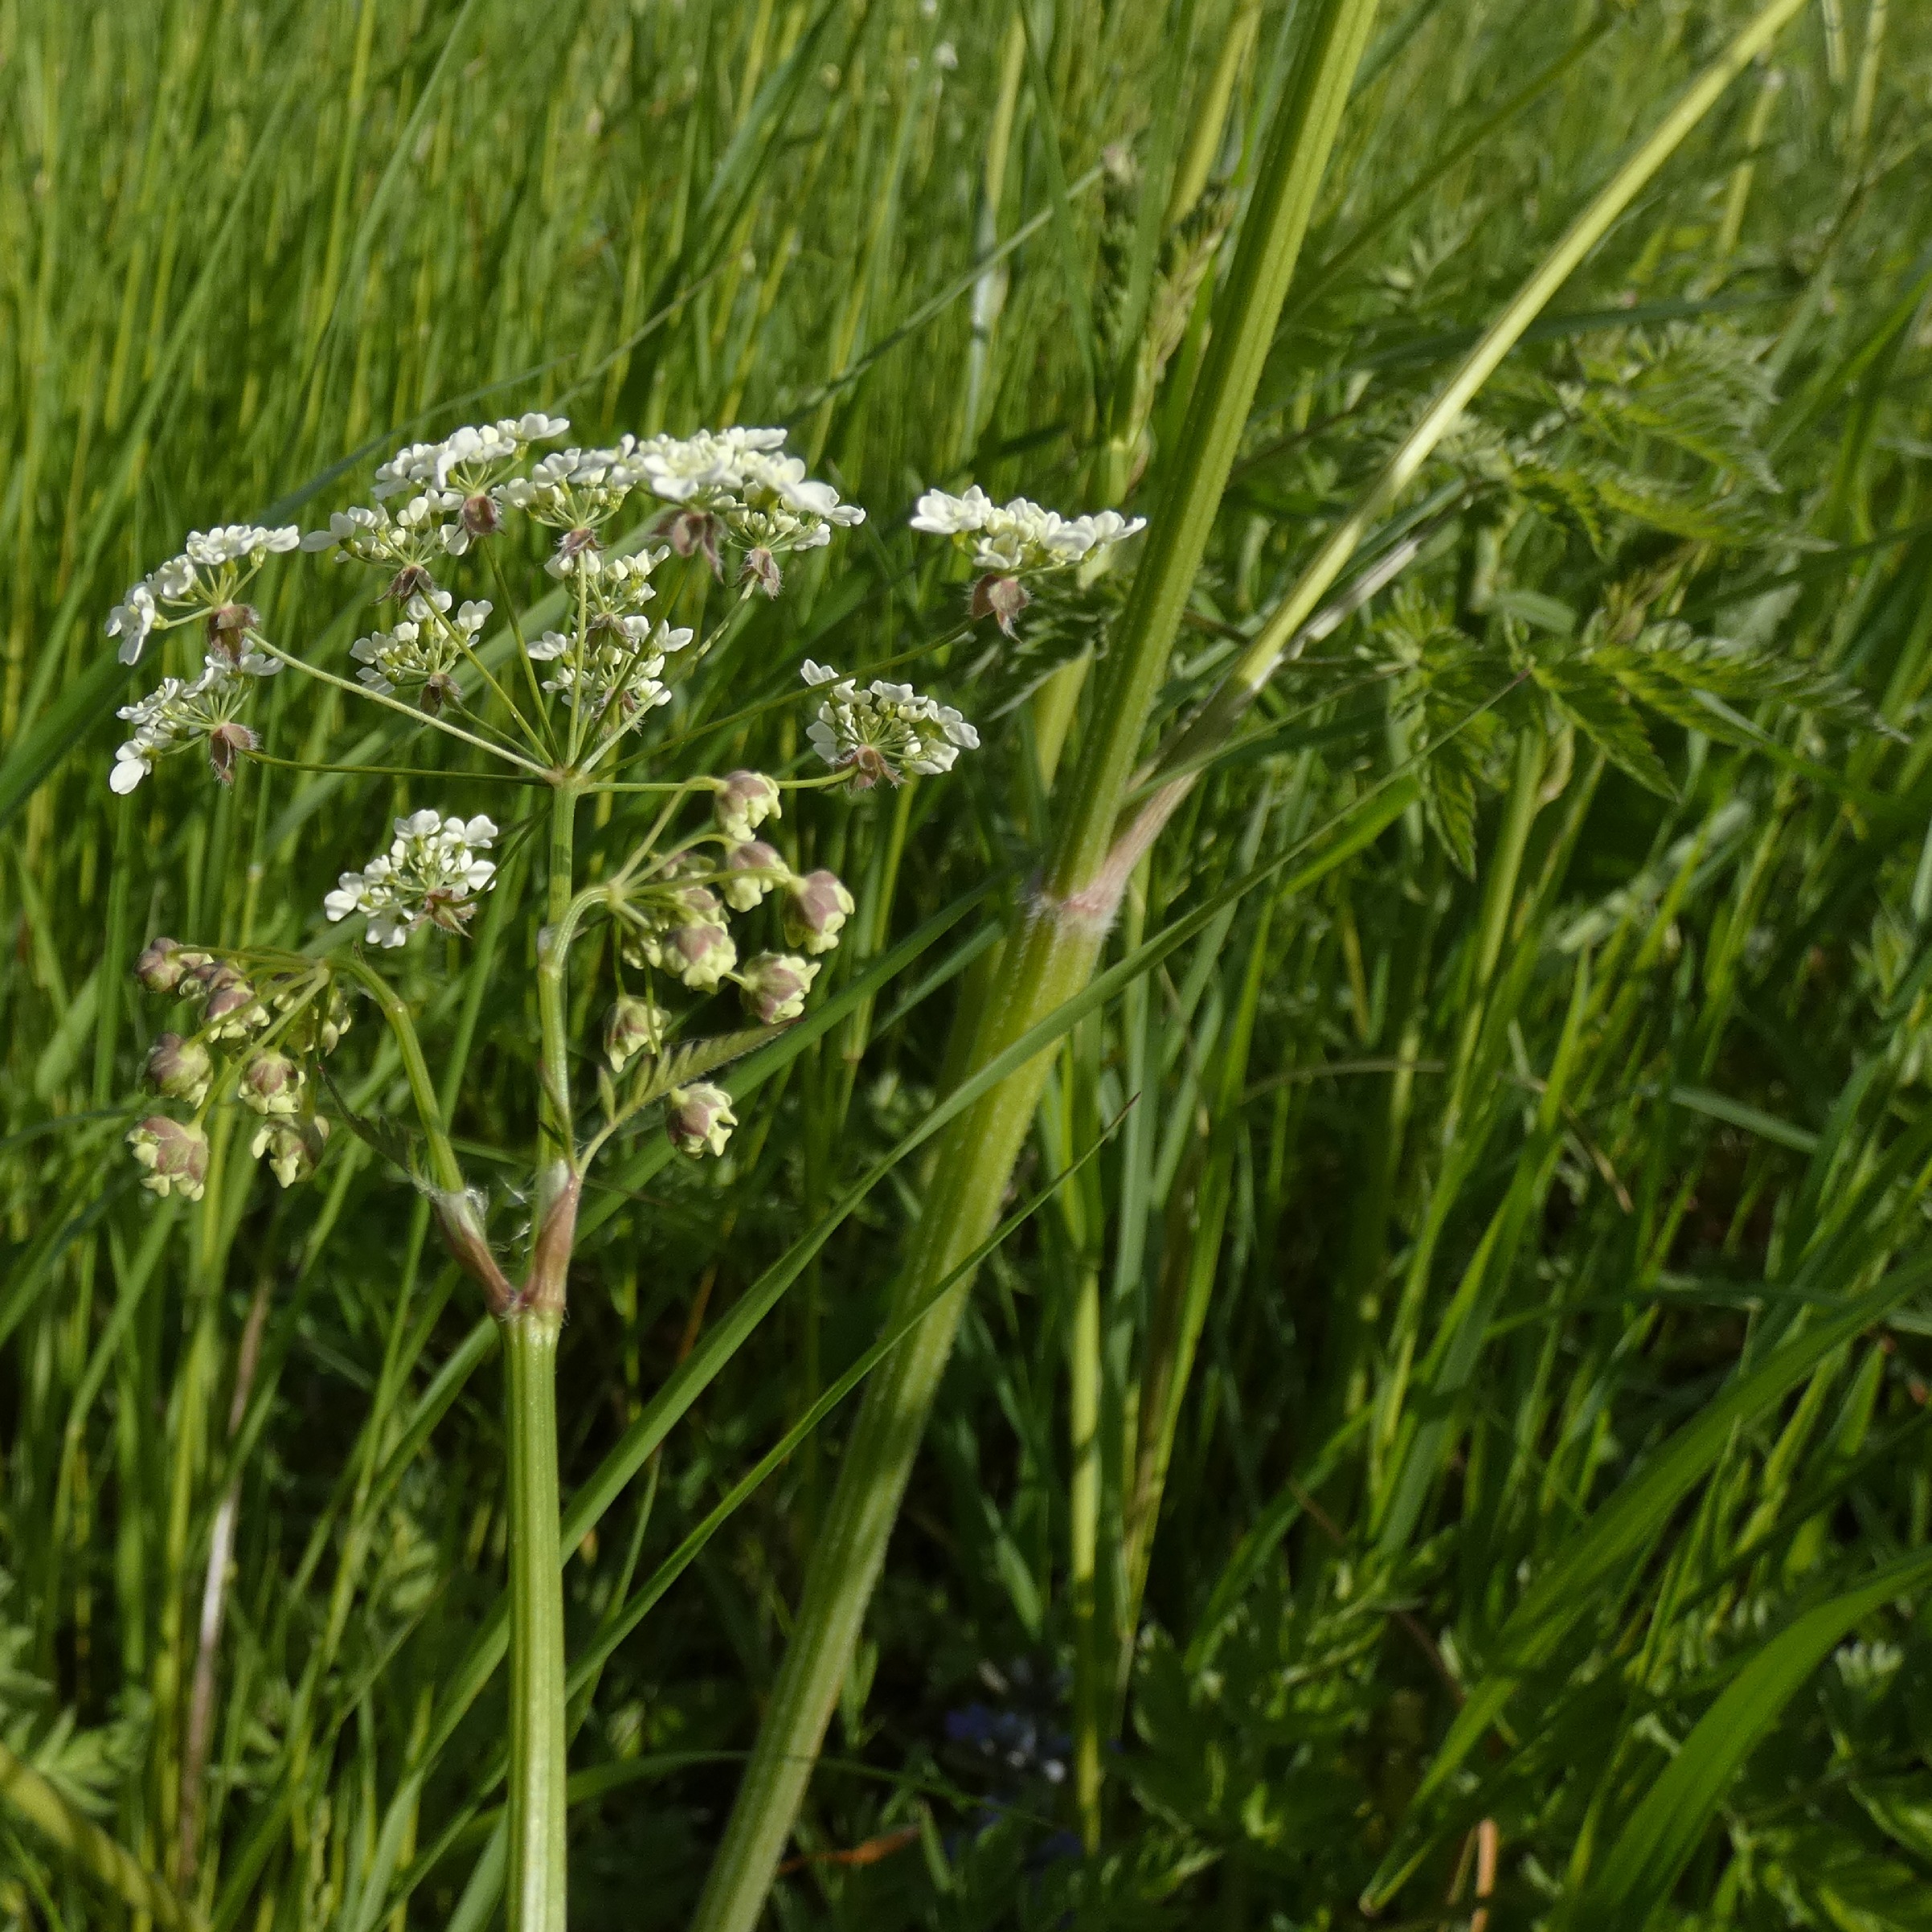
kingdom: Plantae
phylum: Tracheophyta
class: Magnoliopsida
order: Apiales
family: Apiaceae
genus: Anthriscus
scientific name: Anthriscus sylvestris
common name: Vild kørvel
